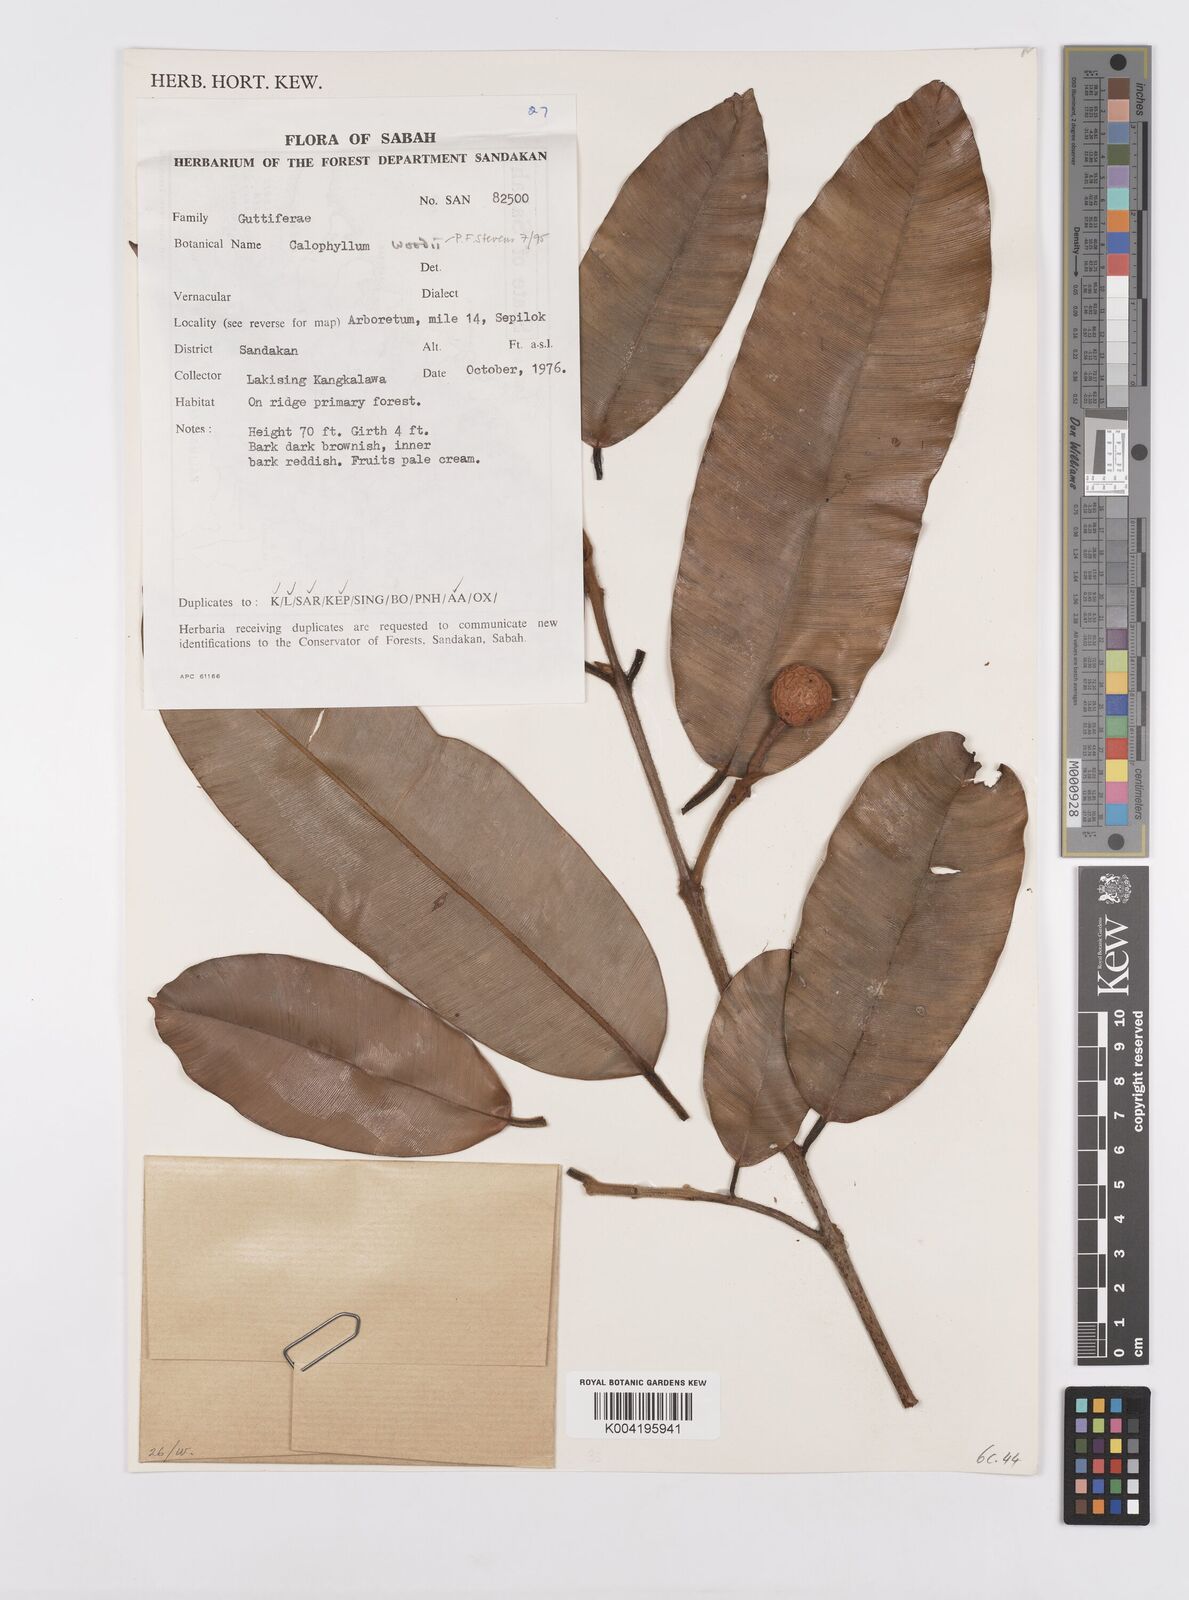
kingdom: Plantae
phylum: Tracheophyta
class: Magnoliopsida
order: Malpighiales
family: Calophyllaceae
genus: Calophyllum
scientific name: Calophyllum woodii
